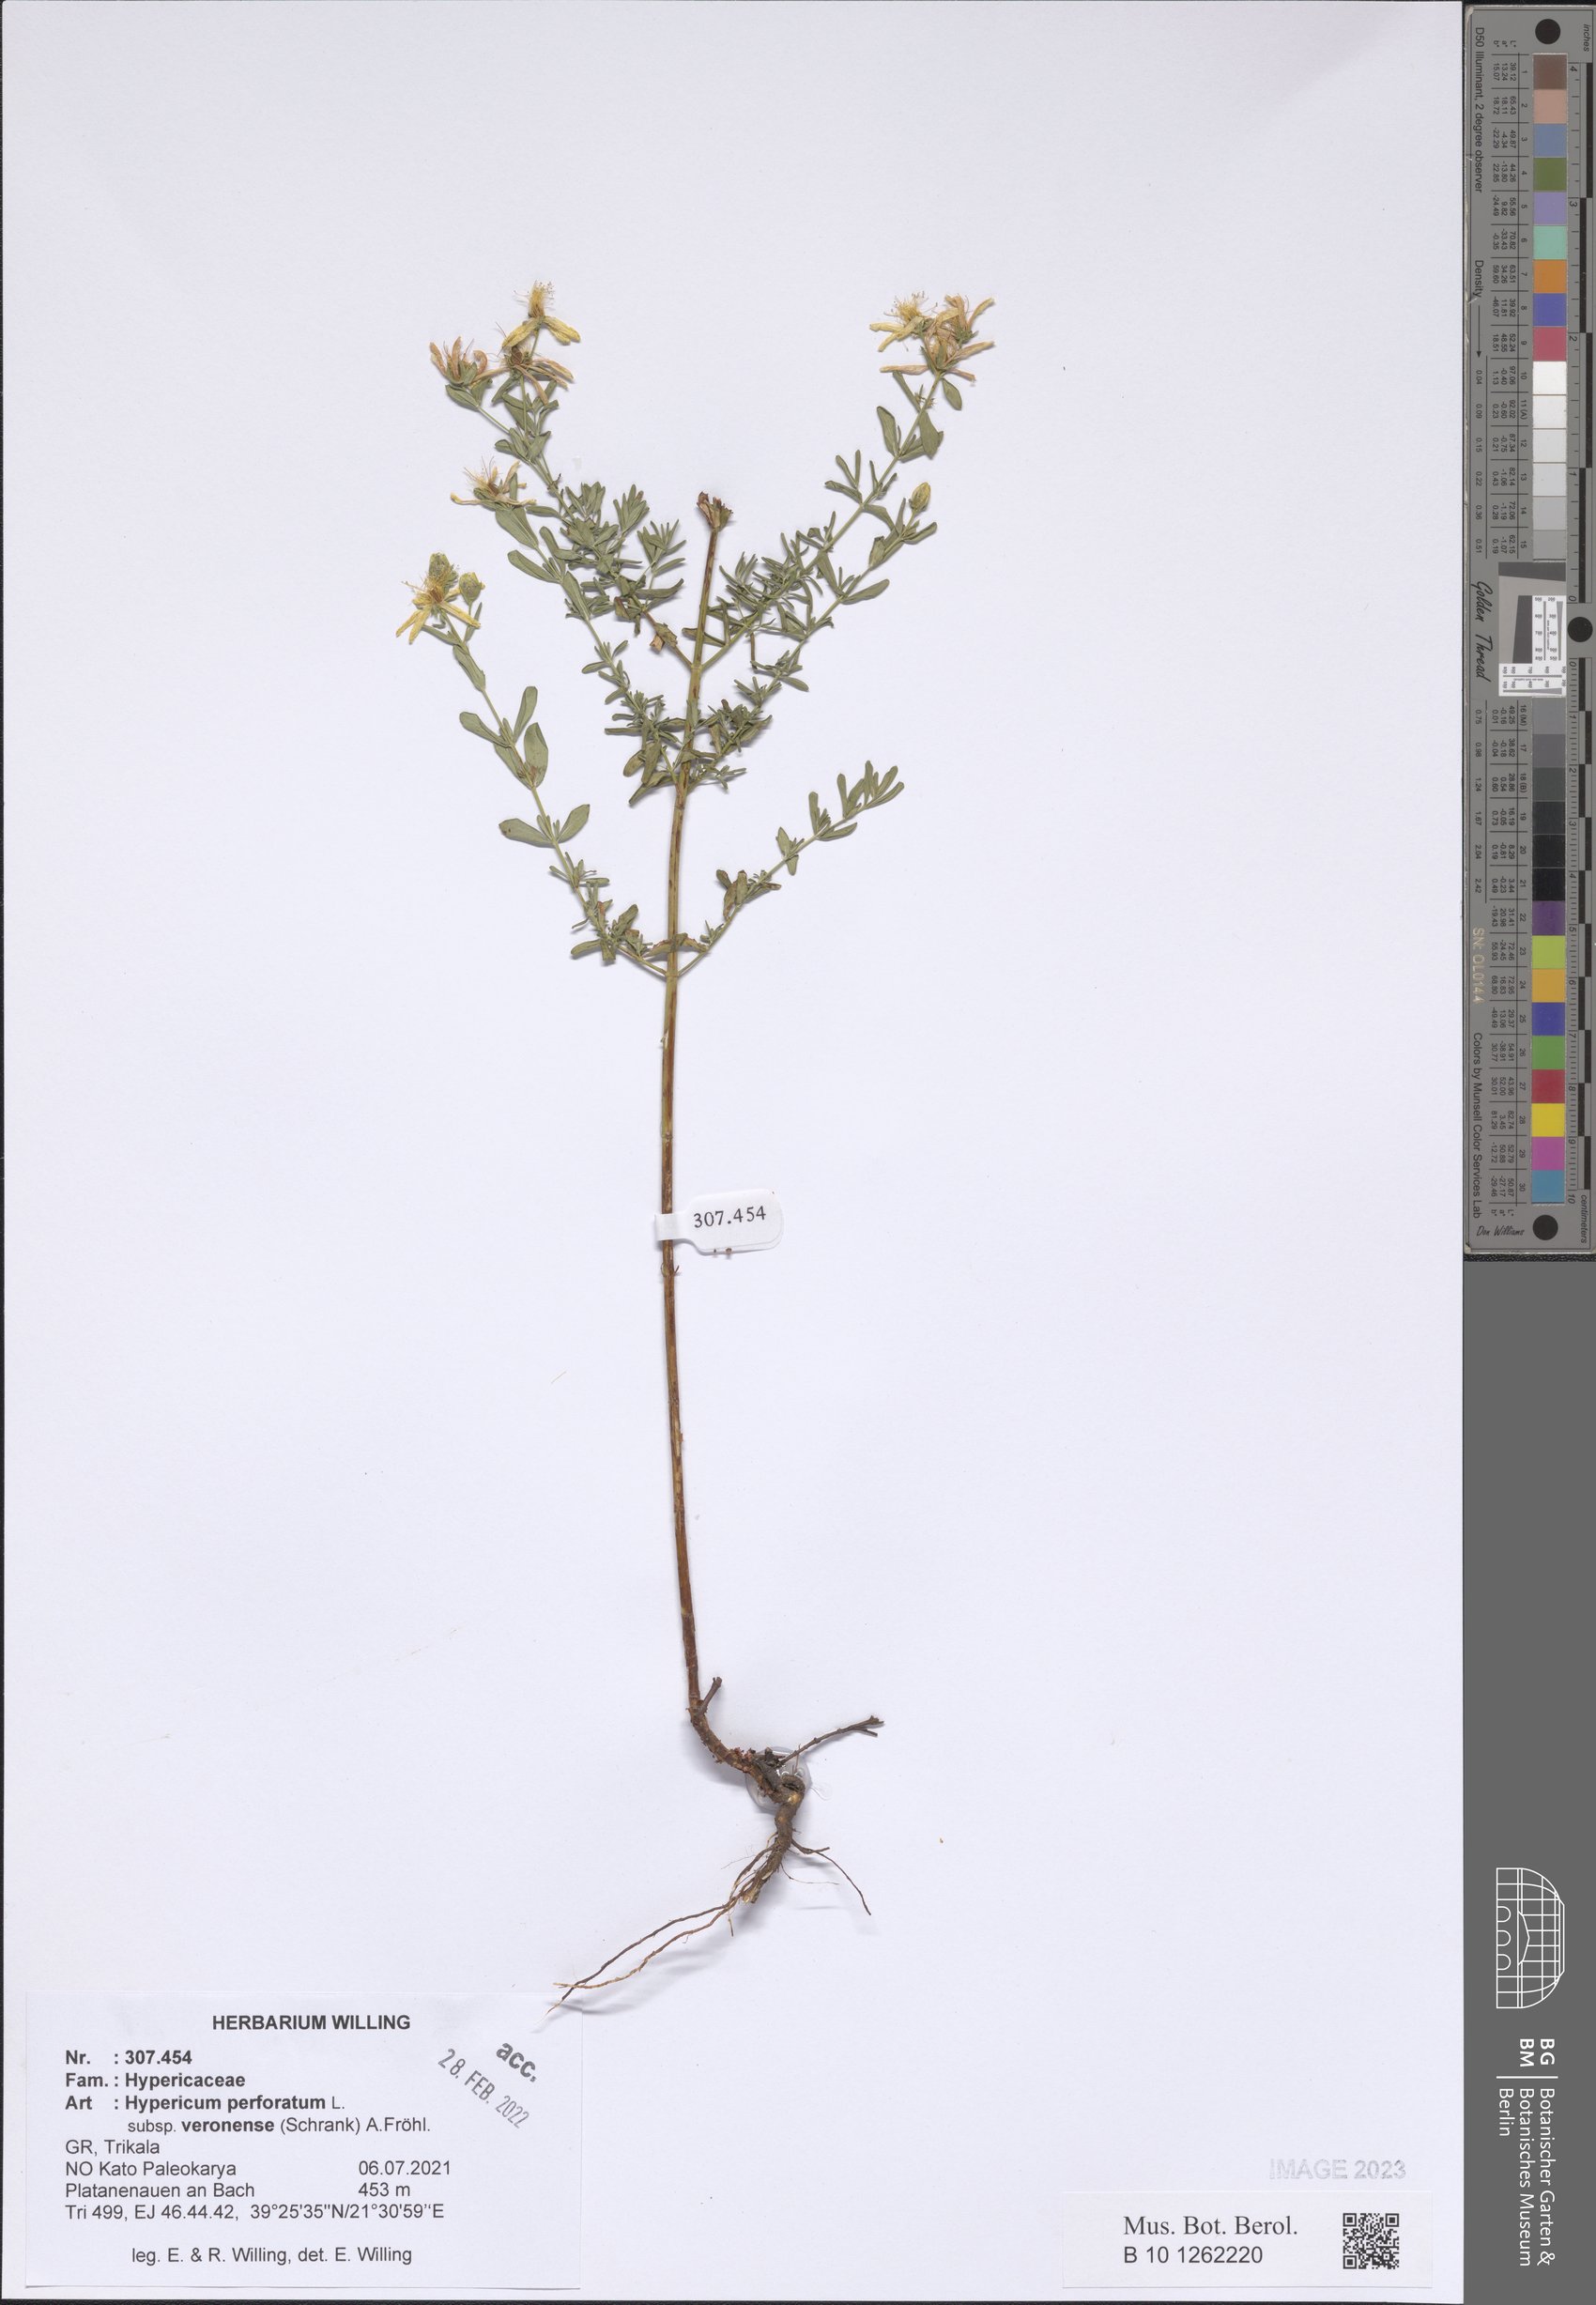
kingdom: Plantae
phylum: Tracheophyta
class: Magnoliopsida
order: Malpighiales
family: Hypericaceae
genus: Hypericum
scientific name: Hypericum veronense
